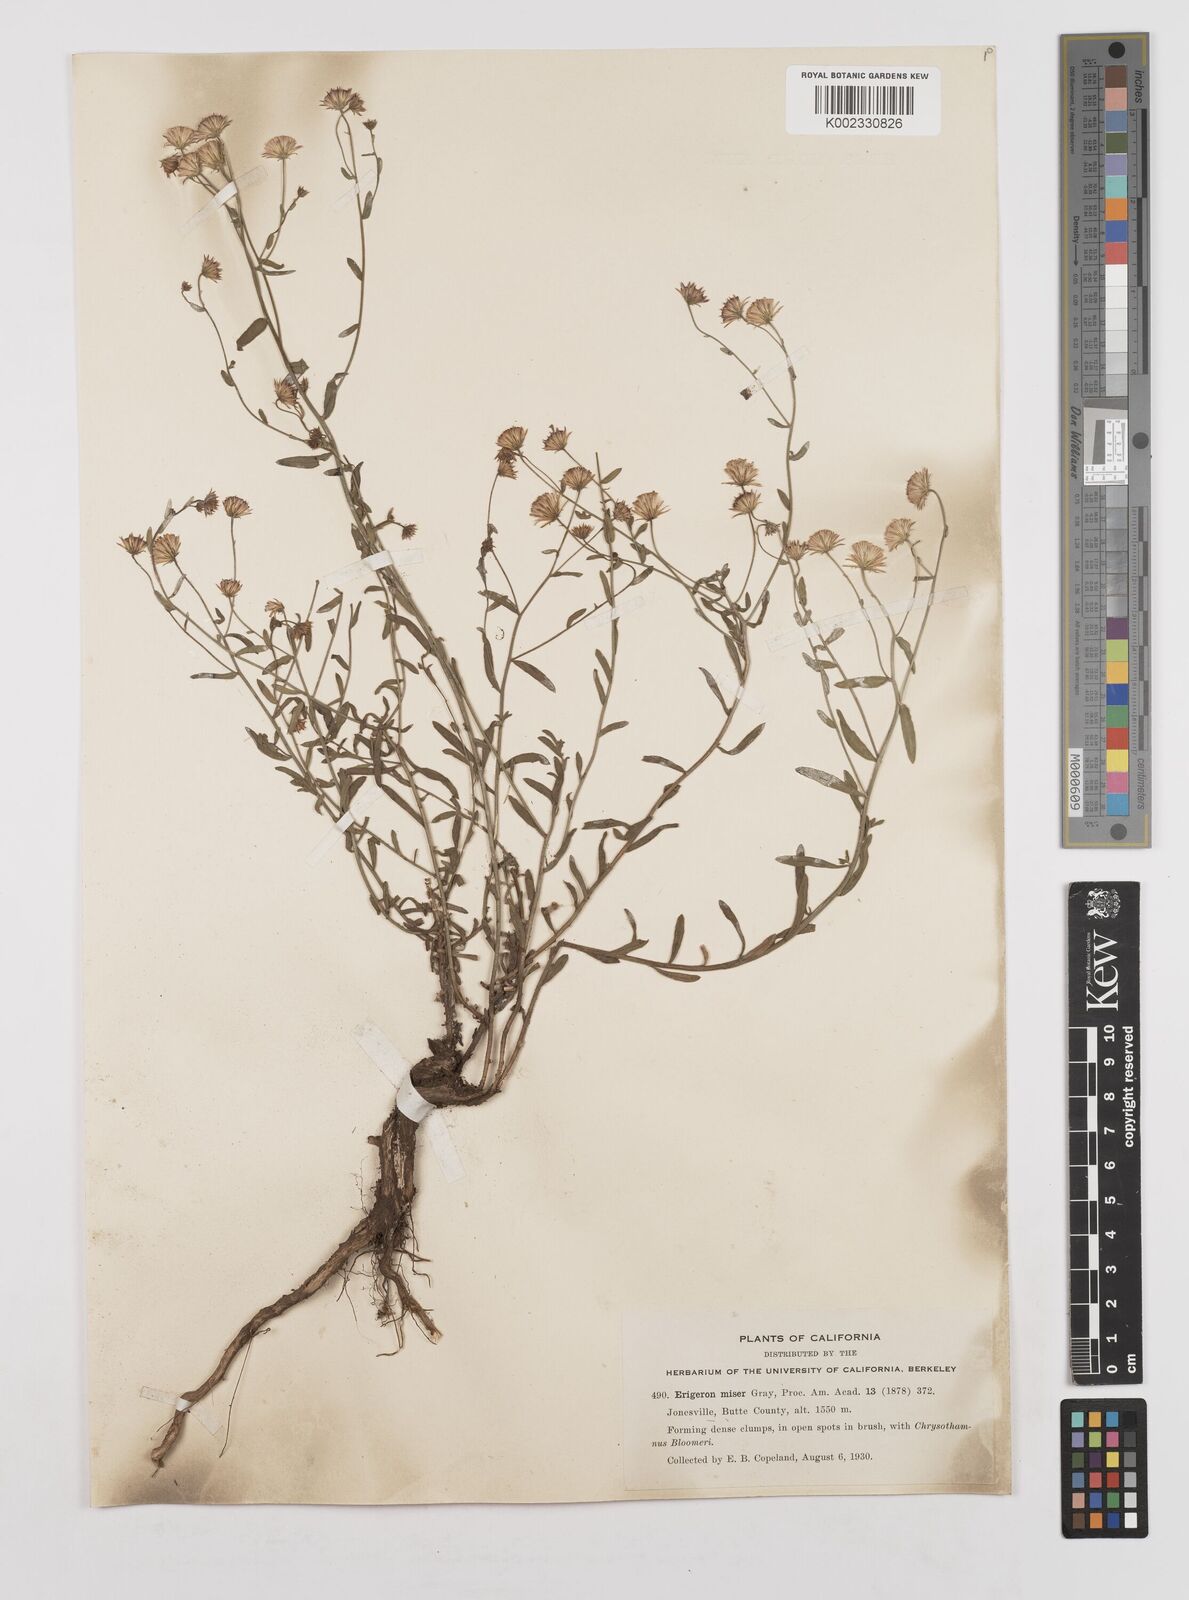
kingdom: Plantae
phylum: Tracheophyta
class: Magnoliopsida
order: Asterales
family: Asteraceae
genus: Erigeron
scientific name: Erigeron supplex
